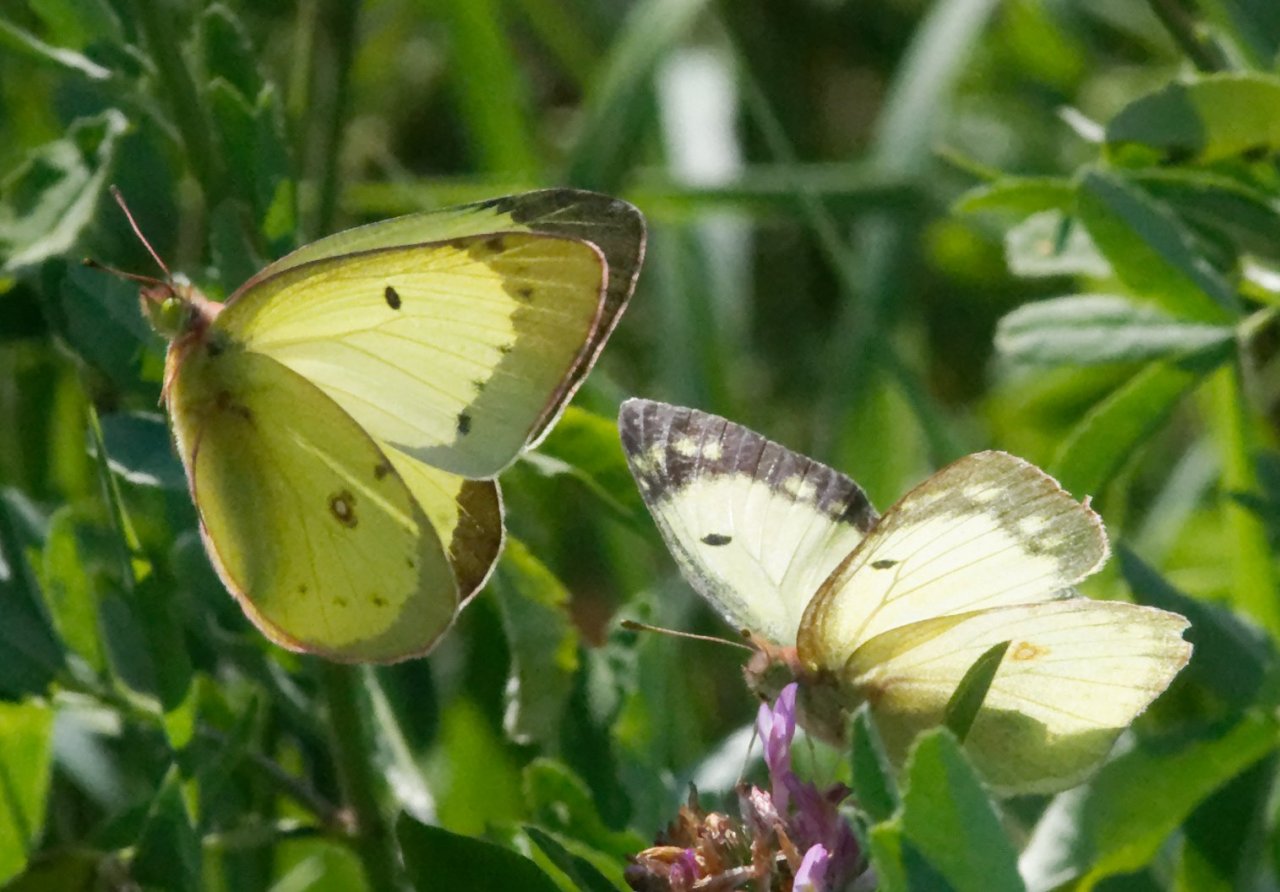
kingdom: Animalia
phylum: Arthropoda
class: Insecta
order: Lepidoptera
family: Pieridae
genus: Colias
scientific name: Colias philodice
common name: Clouded Sulphur
